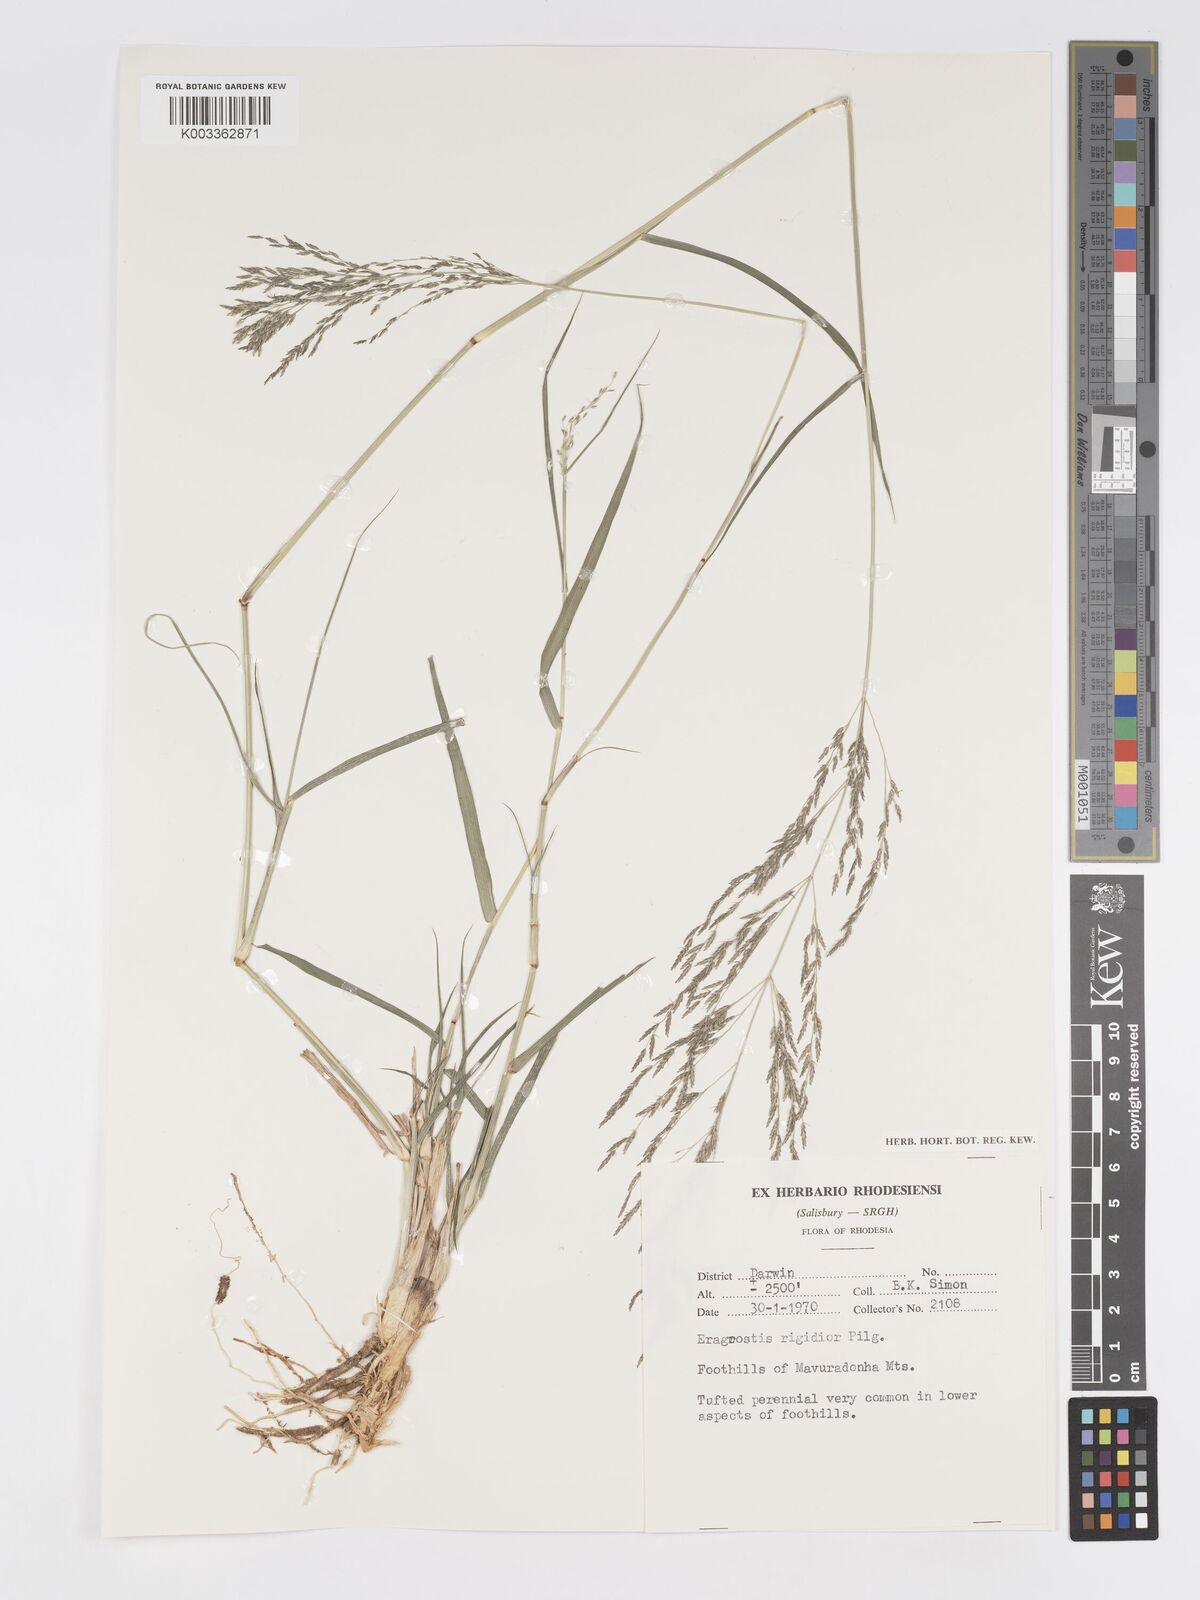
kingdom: Plantae
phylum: Tracheophyta
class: Liliopsida
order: Poales
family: Poaceae
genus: Eragrostis
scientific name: Eragrostis cylindriflora
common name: Cylinderflower lovegrass
